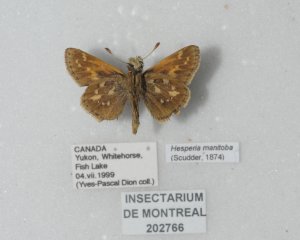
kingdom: Animalia
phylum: Arthropoda
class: Insecta
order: Lepidoptera
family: Hesperiidae
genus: Hesperia
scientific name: Hesperia comma
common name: Common Branded Skipper
